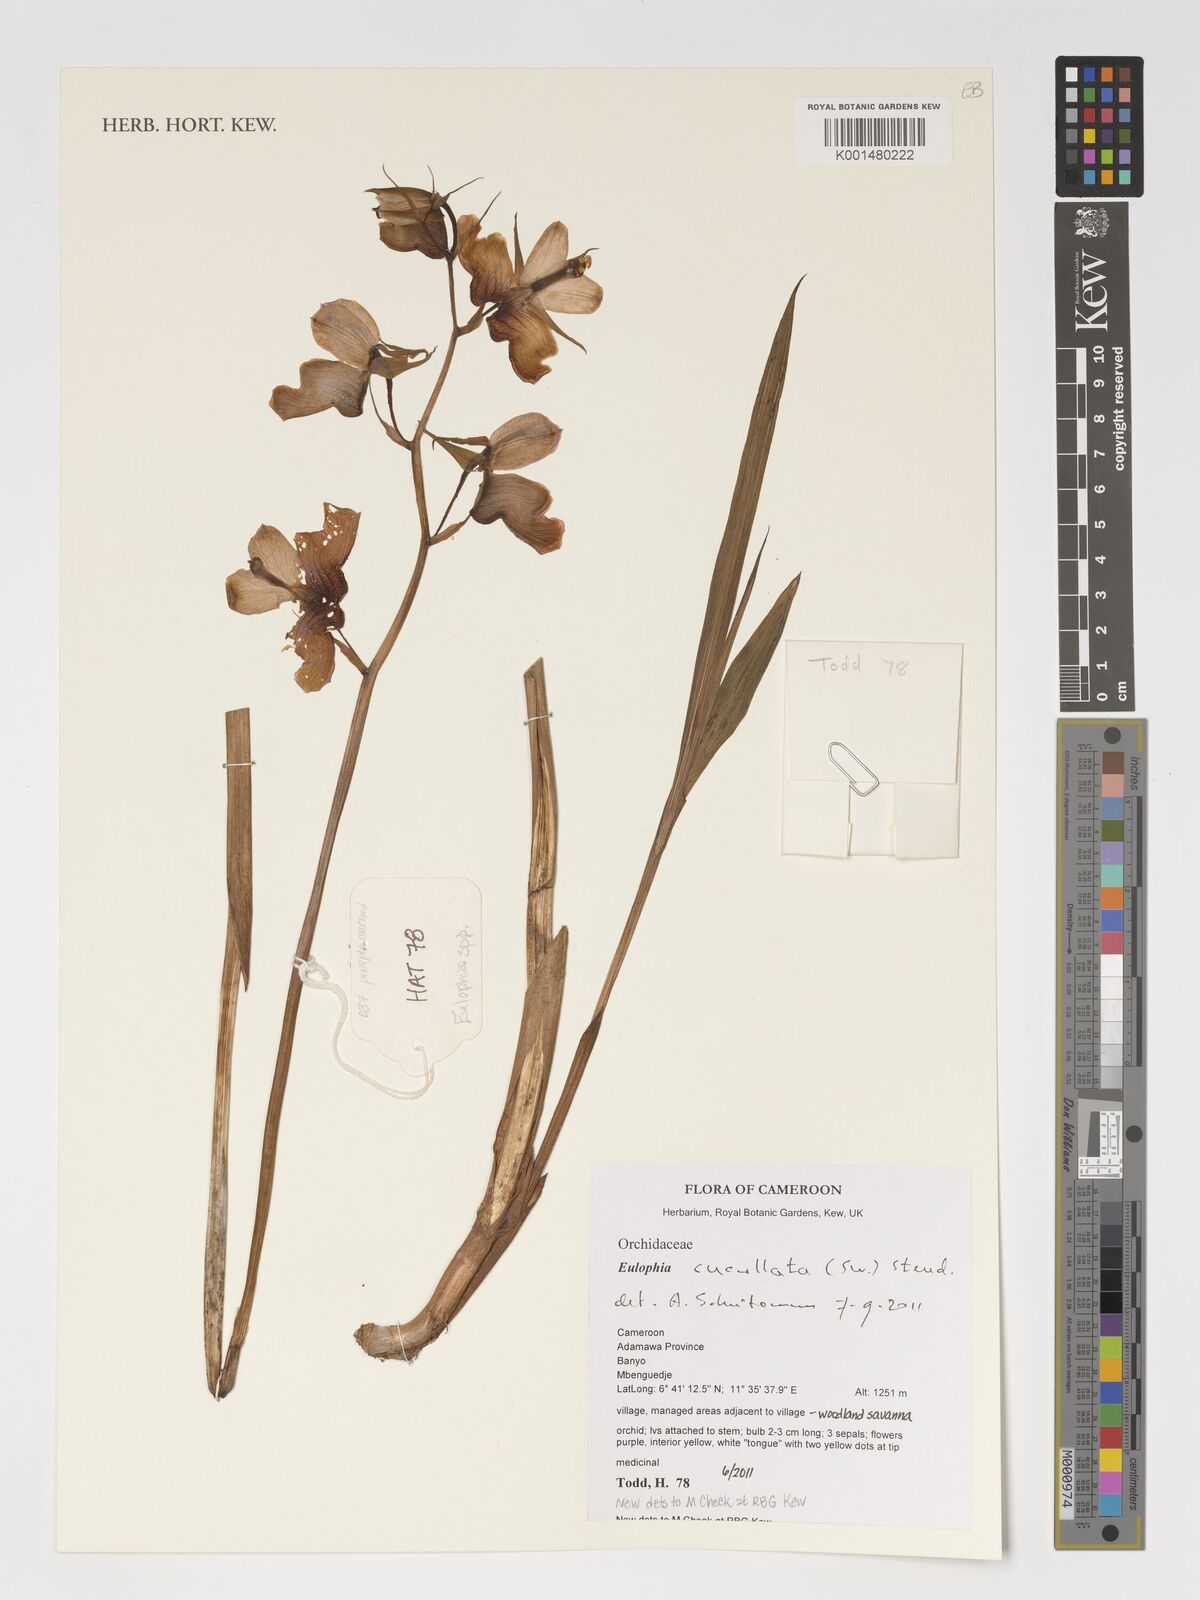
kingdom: Plantae
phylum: Tracheophyta
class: Liliopsida
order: Asparagales
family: Orchidaceae
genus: Eulophia
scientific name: Eulophia cucullata
